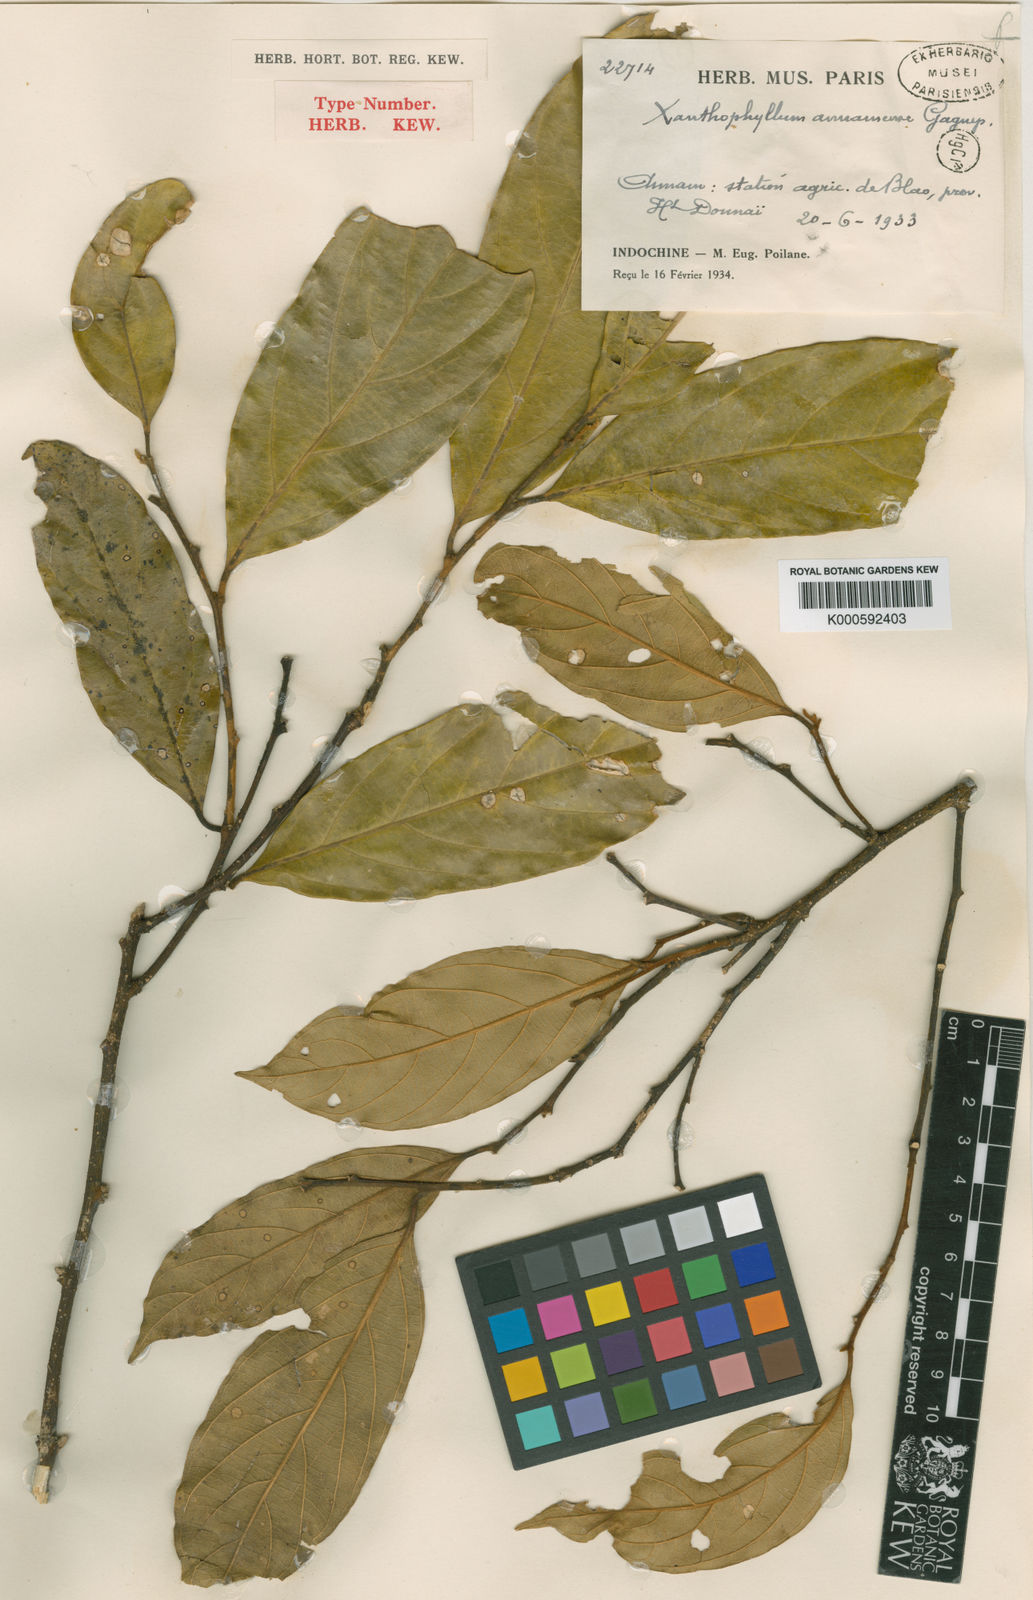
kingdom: Plantae
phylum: Tracheophyta
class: Magnoliopsida
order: Fabales
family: Polygalaceae
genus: Xanthophyllum
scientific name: Xanthophyllum annamense
